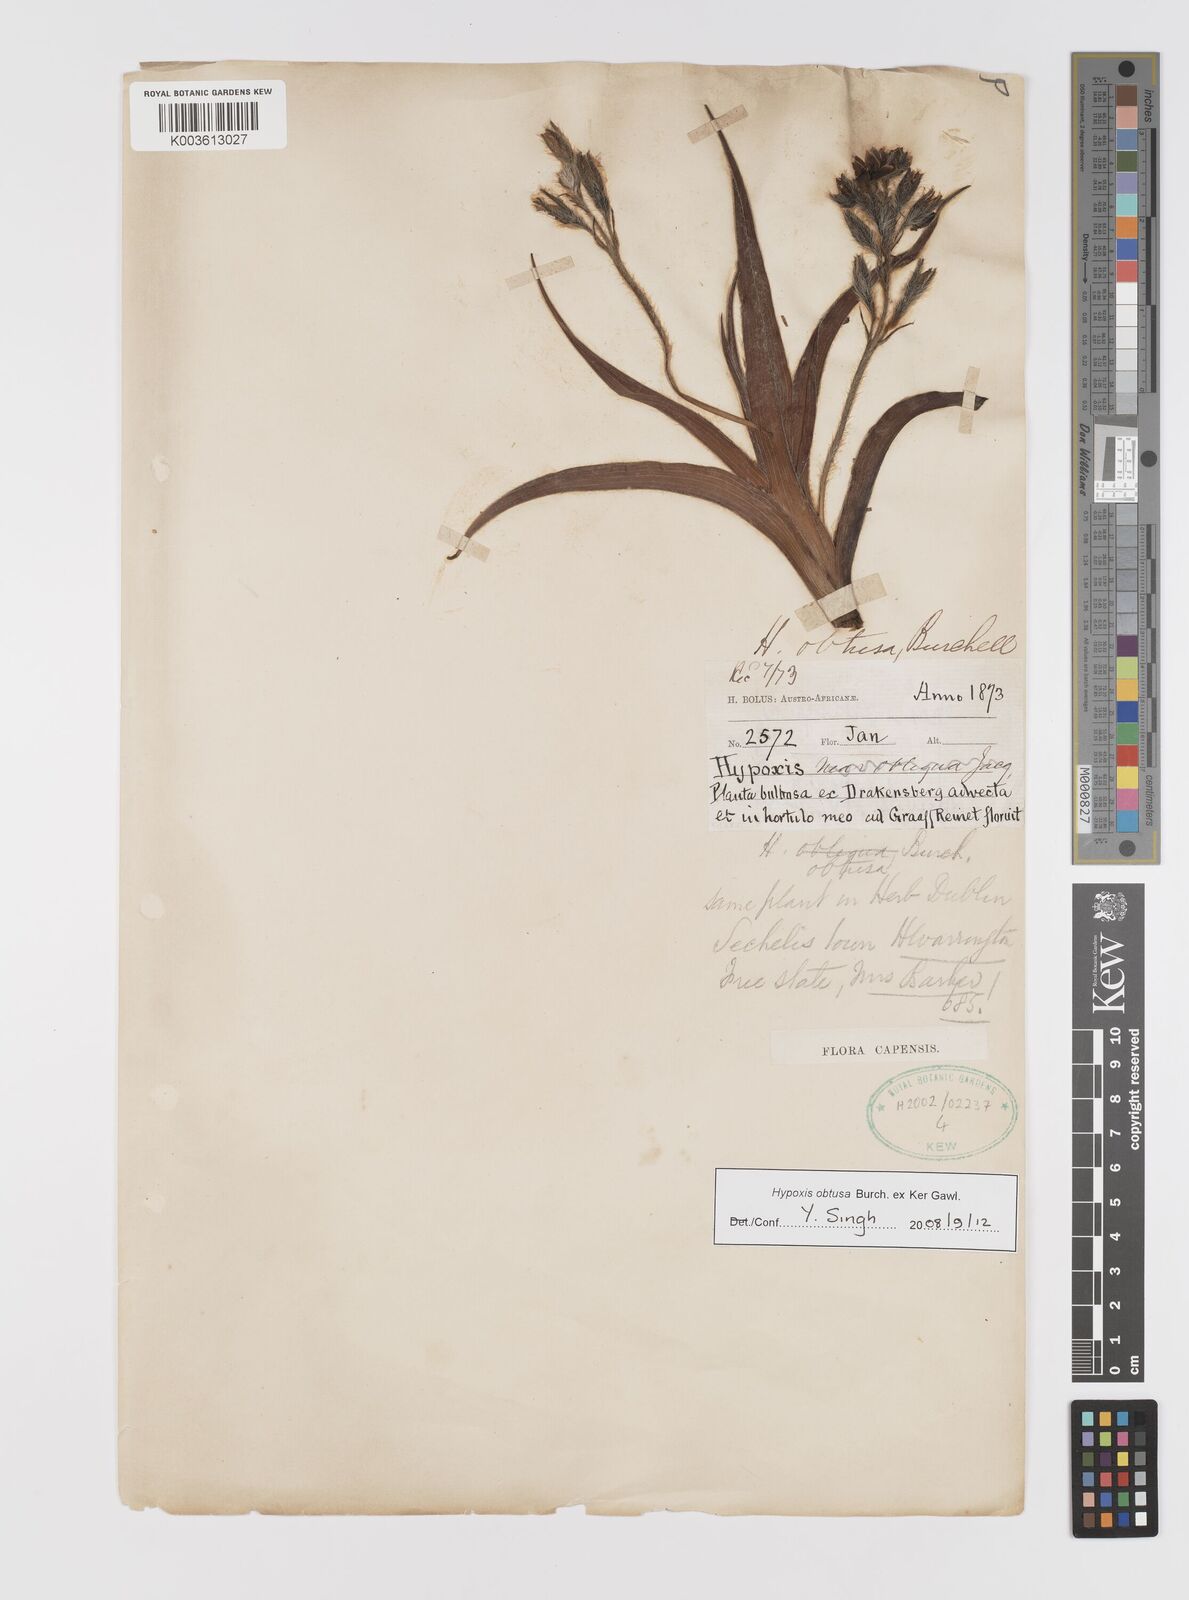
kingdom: Plantae
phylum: Tracheophyta
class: Liliopsida
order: Asparagales
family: Hypoxidaceae
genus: Hypoxis
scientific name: Hypoxis obtusa
